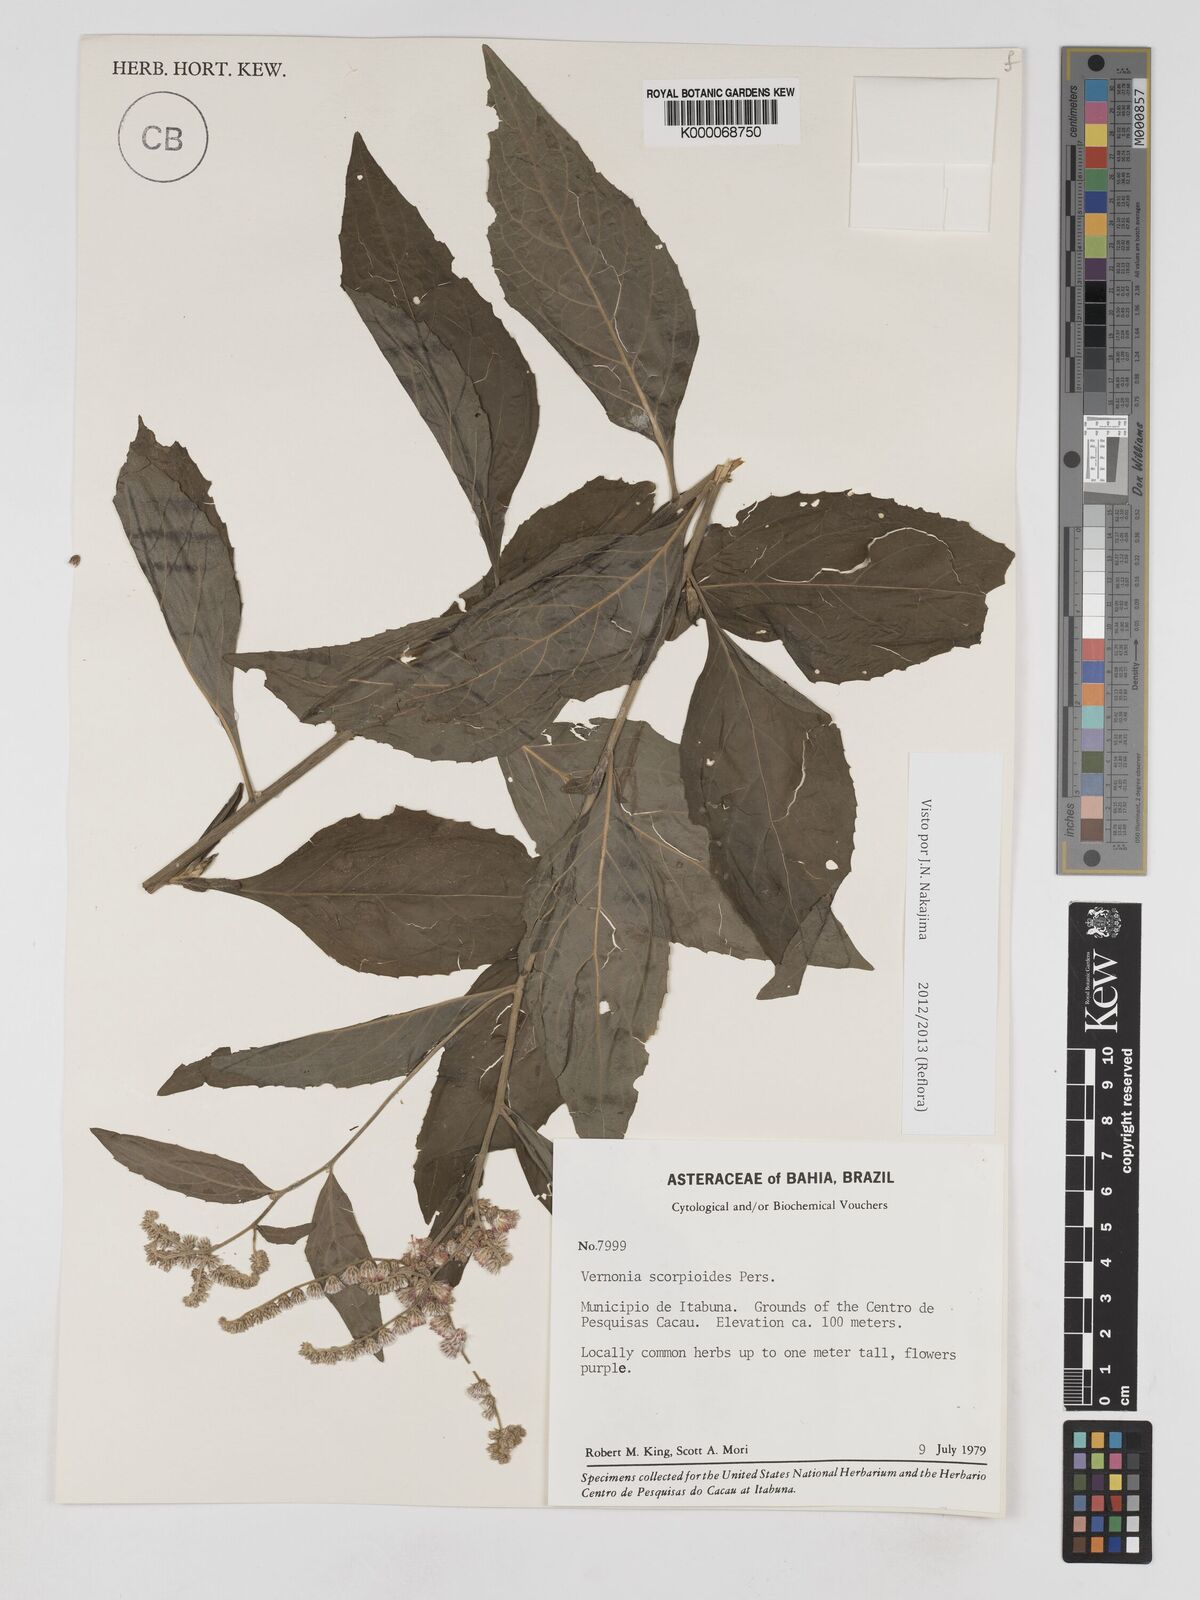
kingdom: Plantae
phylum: Tracheophyta
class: Magnoliopsida
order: Asterales
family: Asteraceae
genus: Cyrtocymura
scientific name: Cyrtocymura scorpioides
